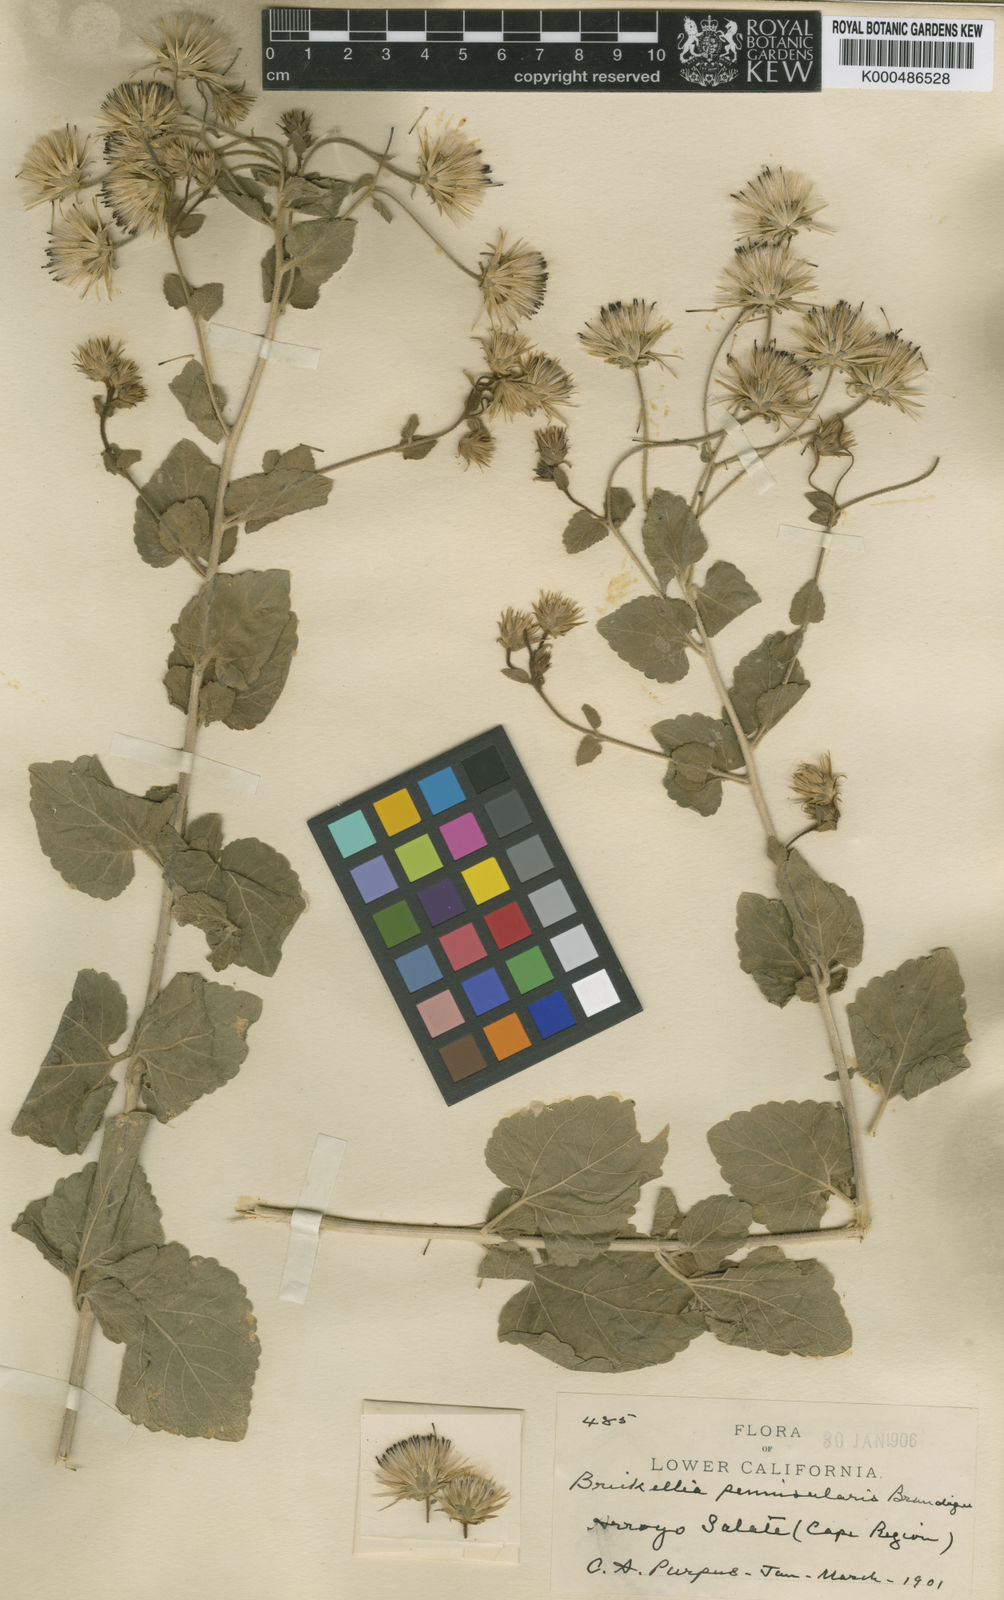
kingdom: Plantae
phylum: Tracheophyta
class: Magnoliopsida
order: Asterales
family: Asteraceae
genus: Brickellia
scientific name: Brickellia peninsularis
